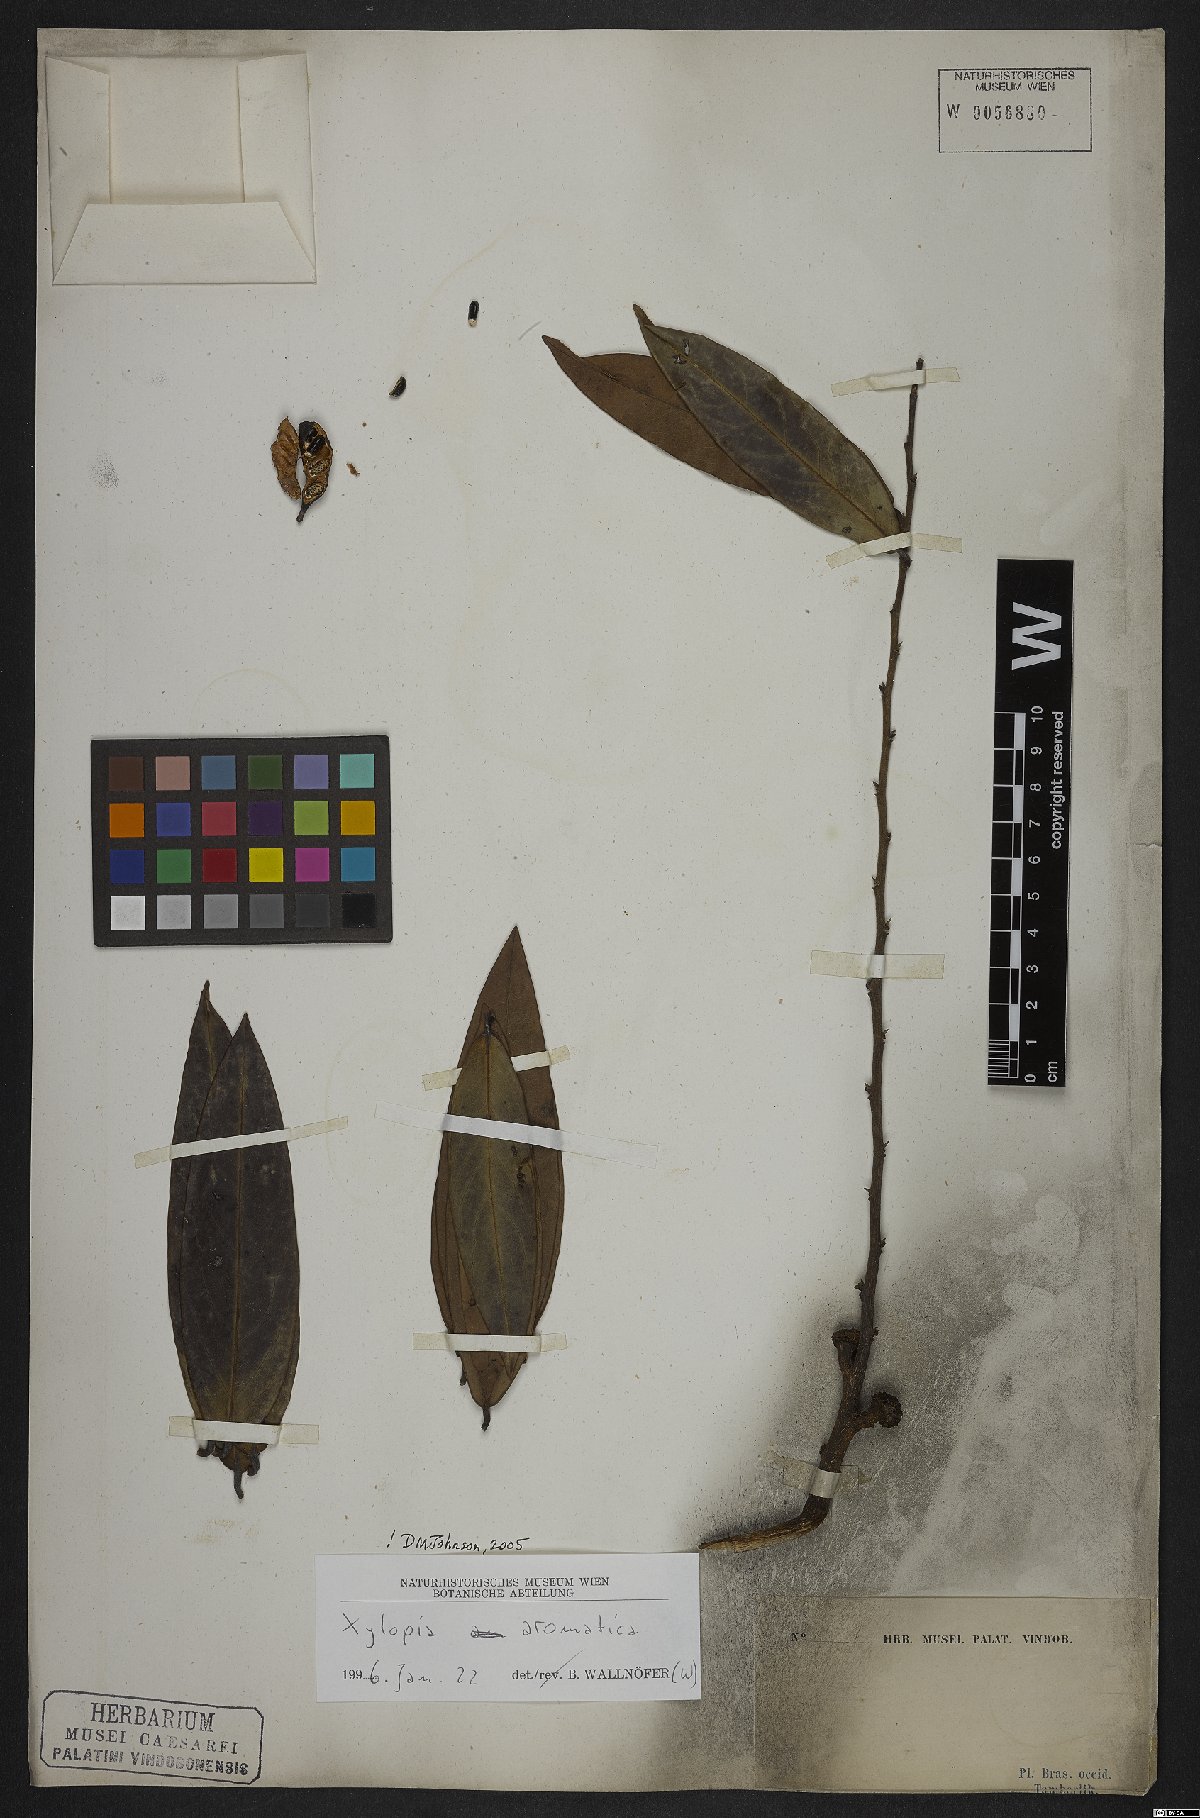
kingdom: Plantae
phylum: Tracheophyta
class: Magnoliopsida
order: Magnoliales
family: Annonaceae
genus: Xylopia
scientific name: Xylopia aromatica
